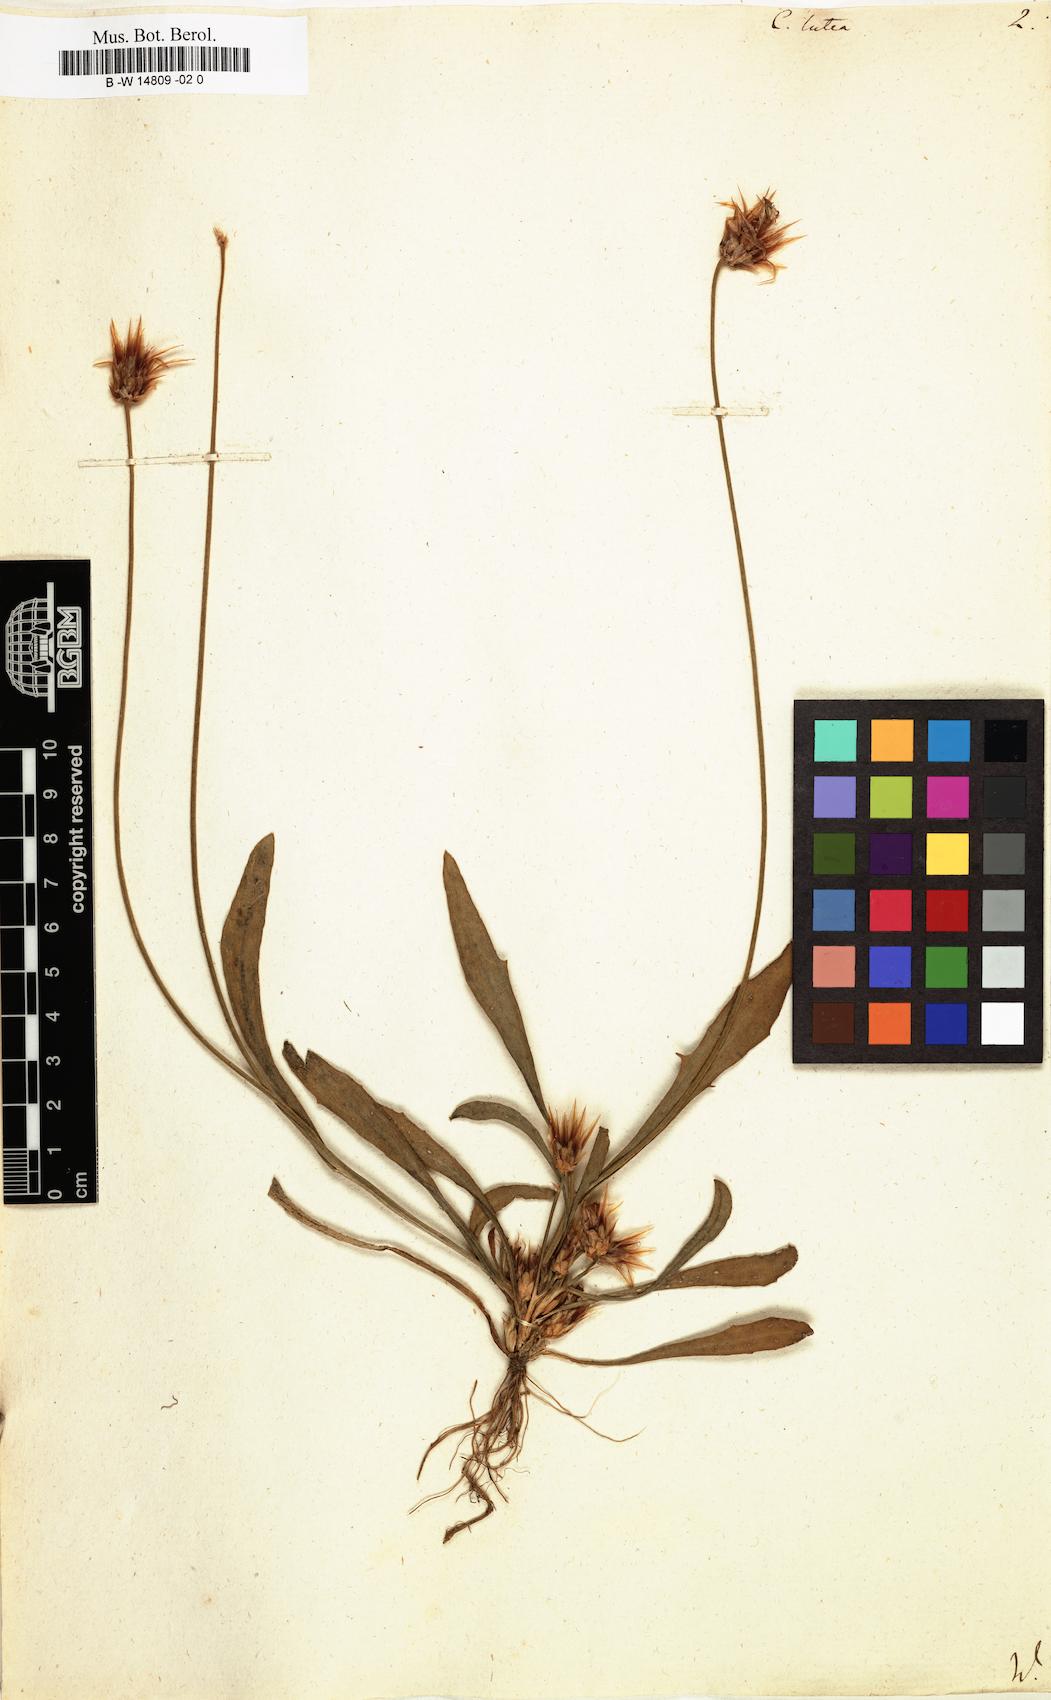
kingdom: Plantae
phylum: Tracheophyta
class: Magnoliopsida
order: Asterales
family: Asteraceae
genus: Catananche
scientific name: Catananche lutea
